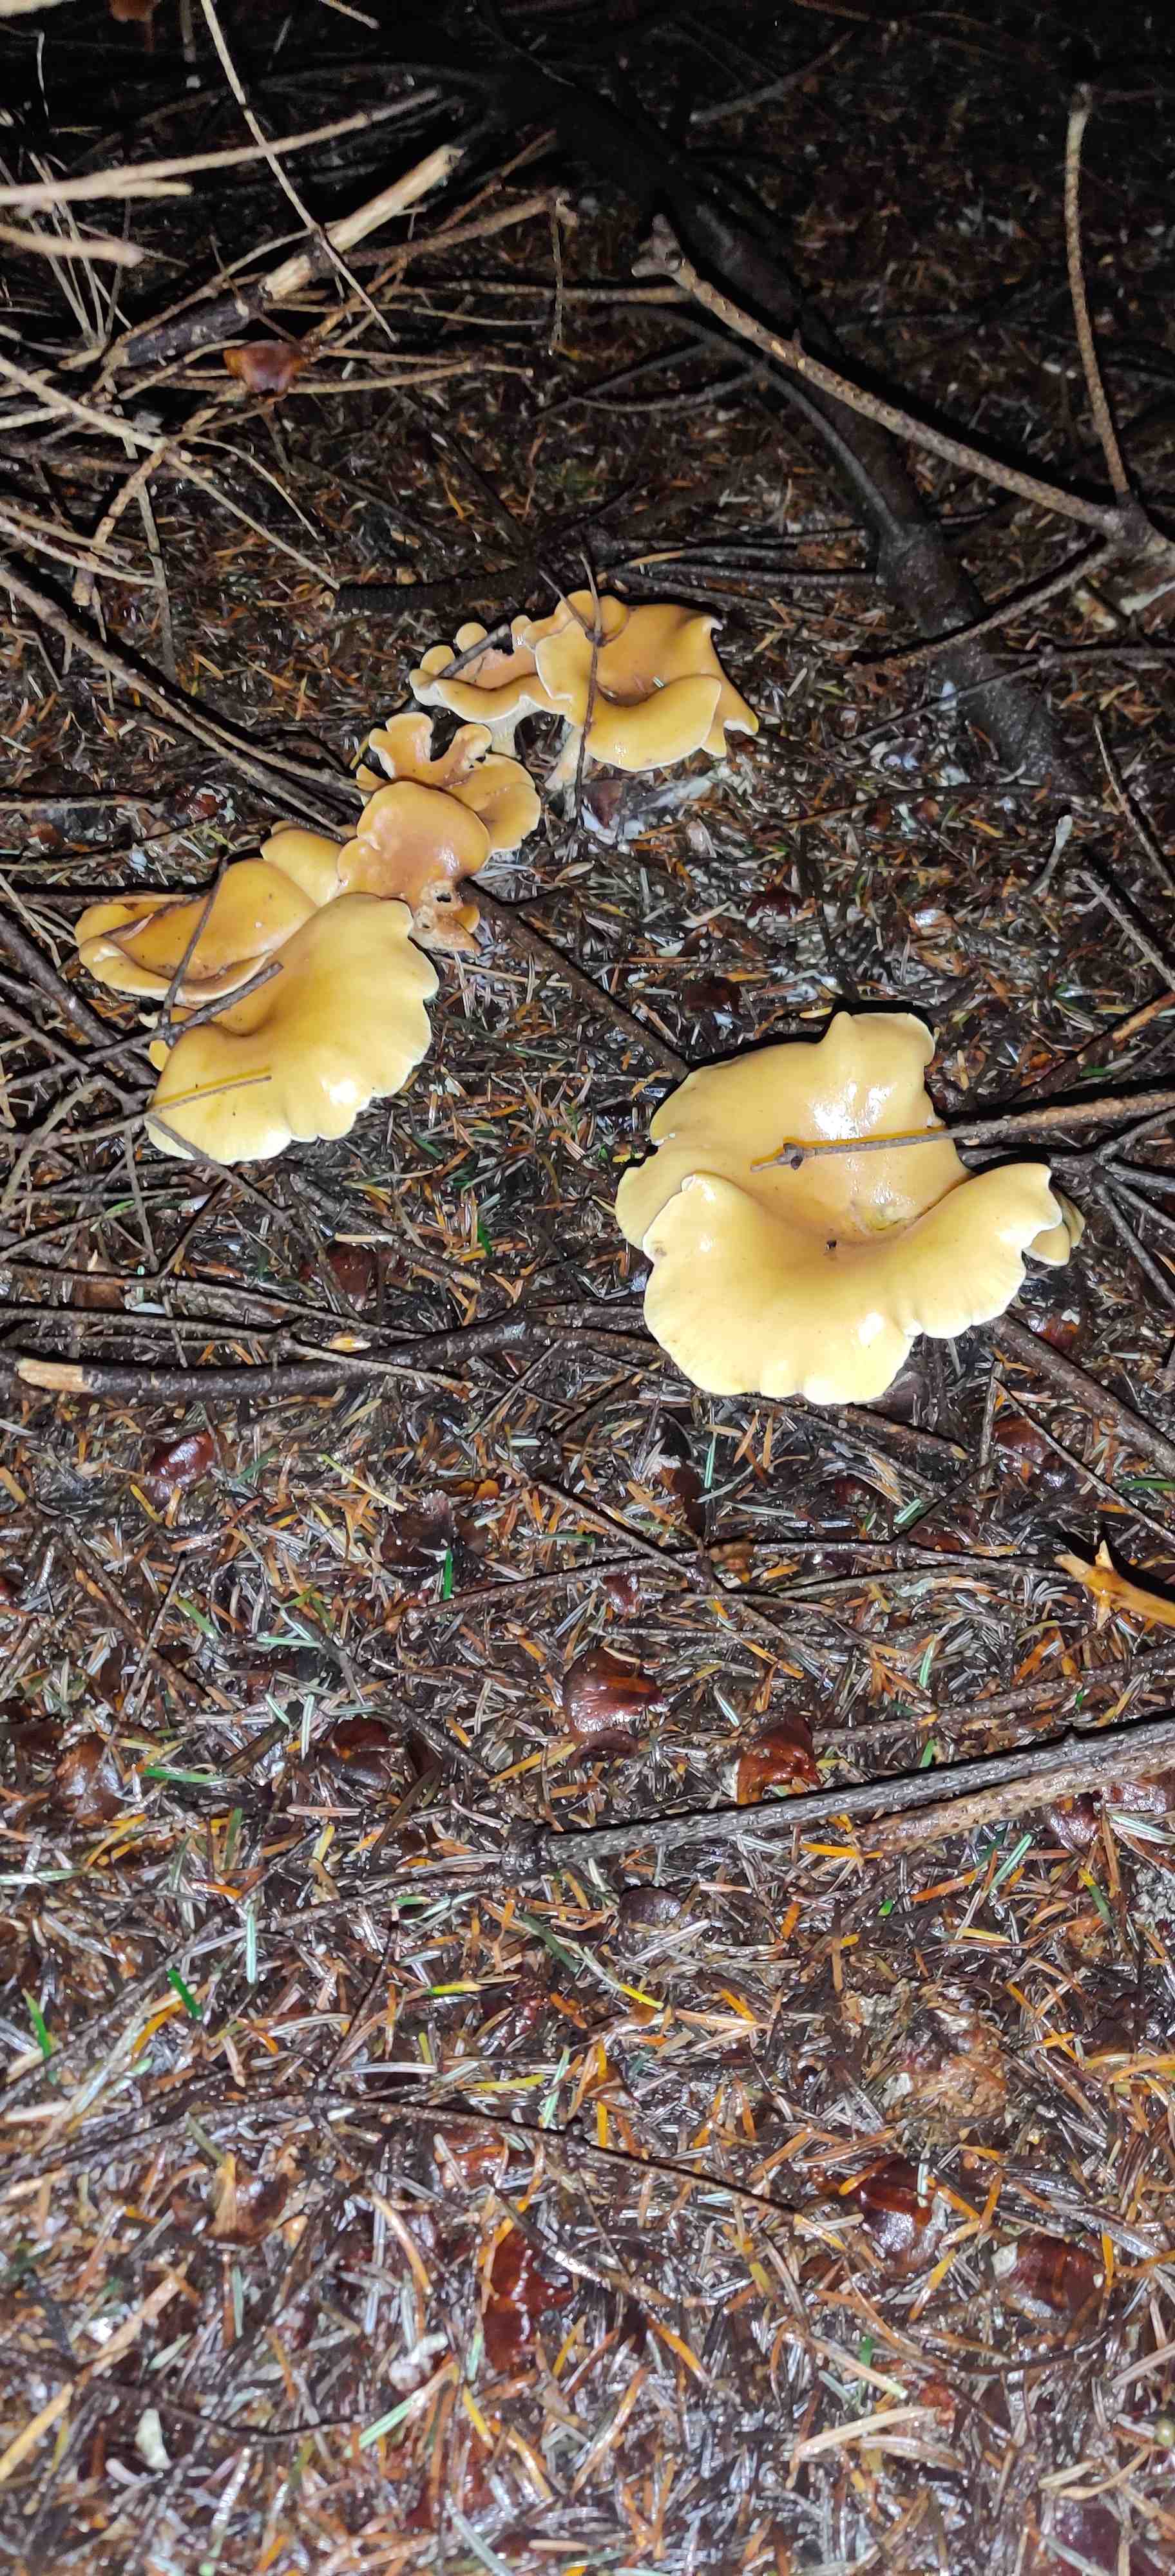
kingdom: Fungi
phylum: Basidiomycota
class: Agaricomycetes
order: Agaricales
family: Tricholomataceae
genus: Paralepista
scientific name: Paralepista
